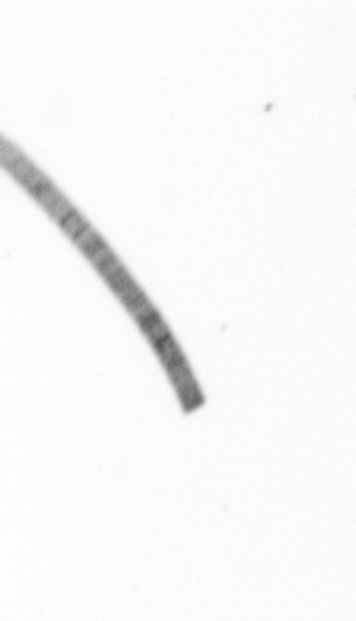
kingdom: Chromista
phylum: Ochrophyta
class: Bacillariophyceae
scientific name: Bacillariophyceae
